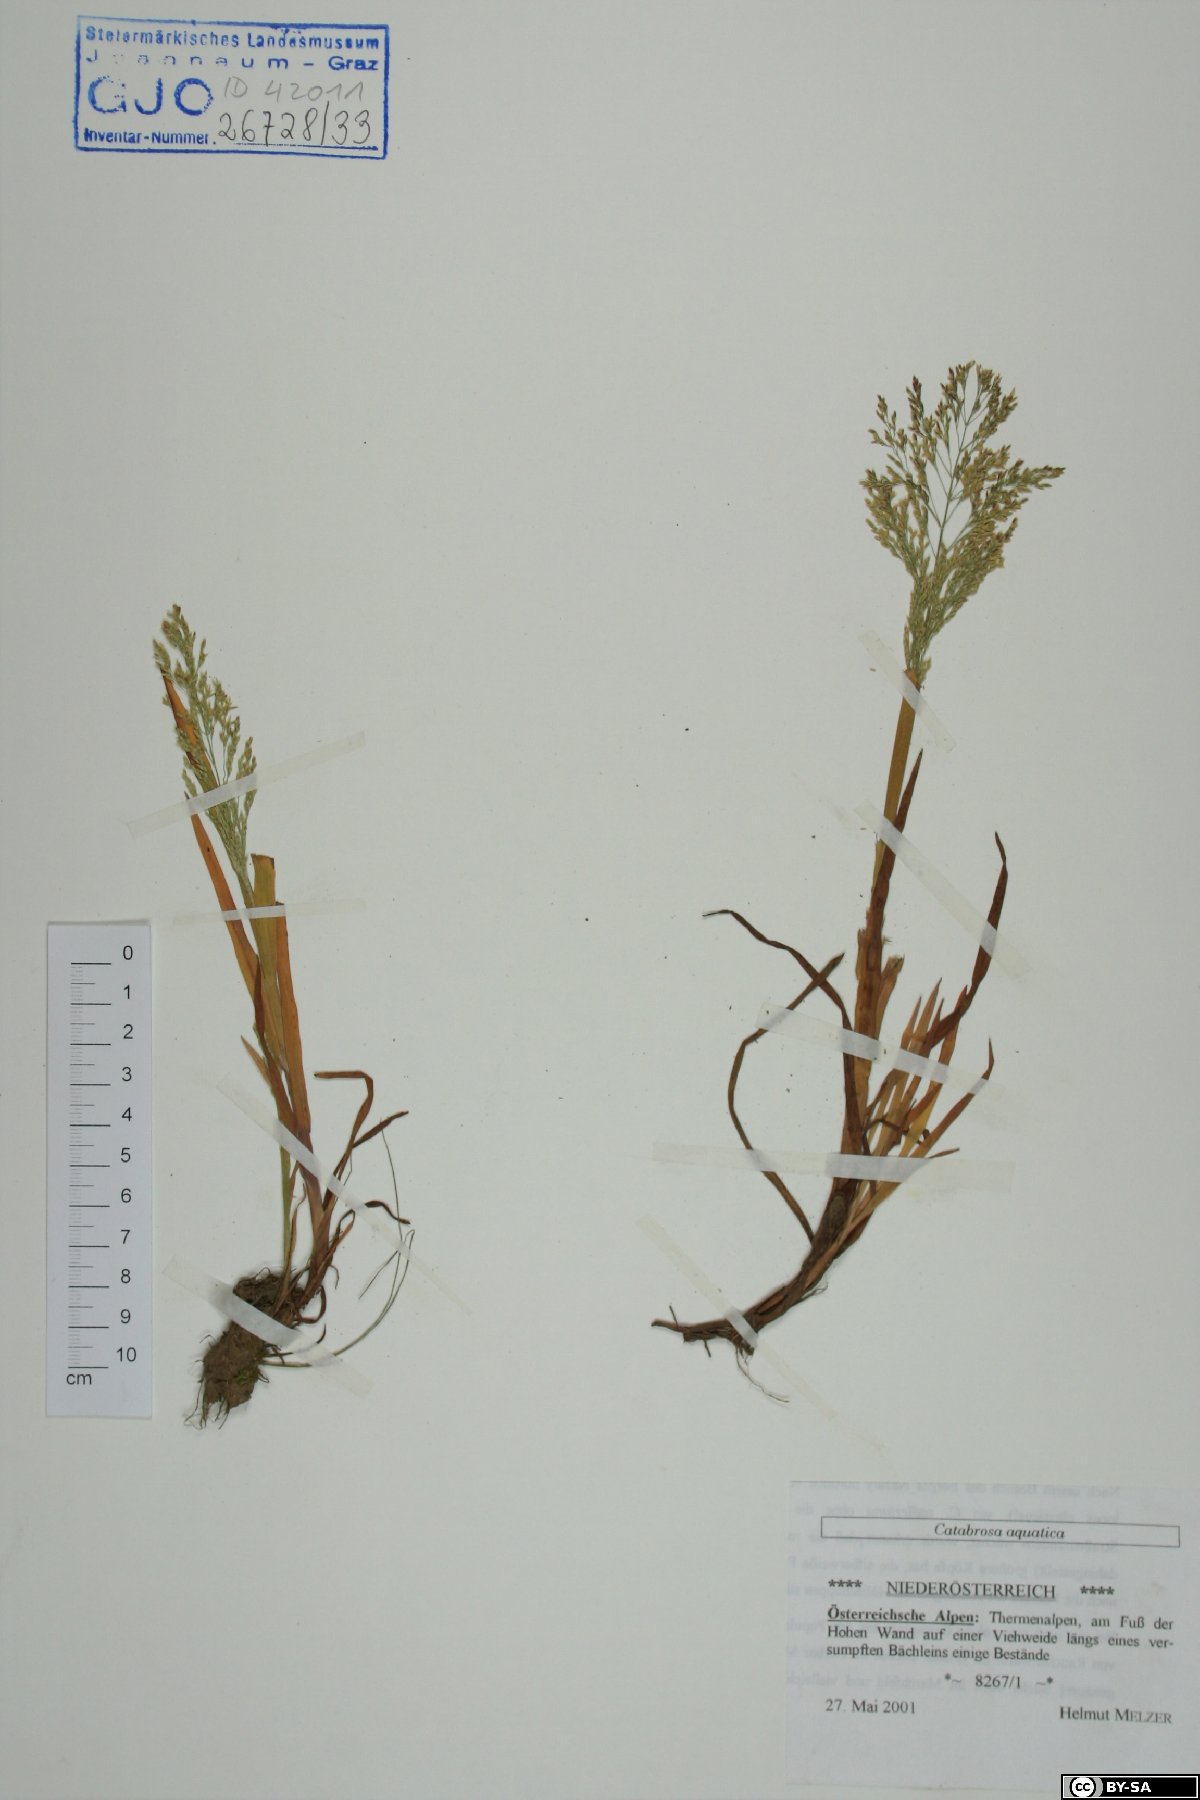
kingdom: Plantae
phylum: Tracheophyta
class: Liliopsida
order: Poales
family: Poaceae
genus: Catabrosa
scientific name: Catabrosa aquatica
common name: Whorl-grass
